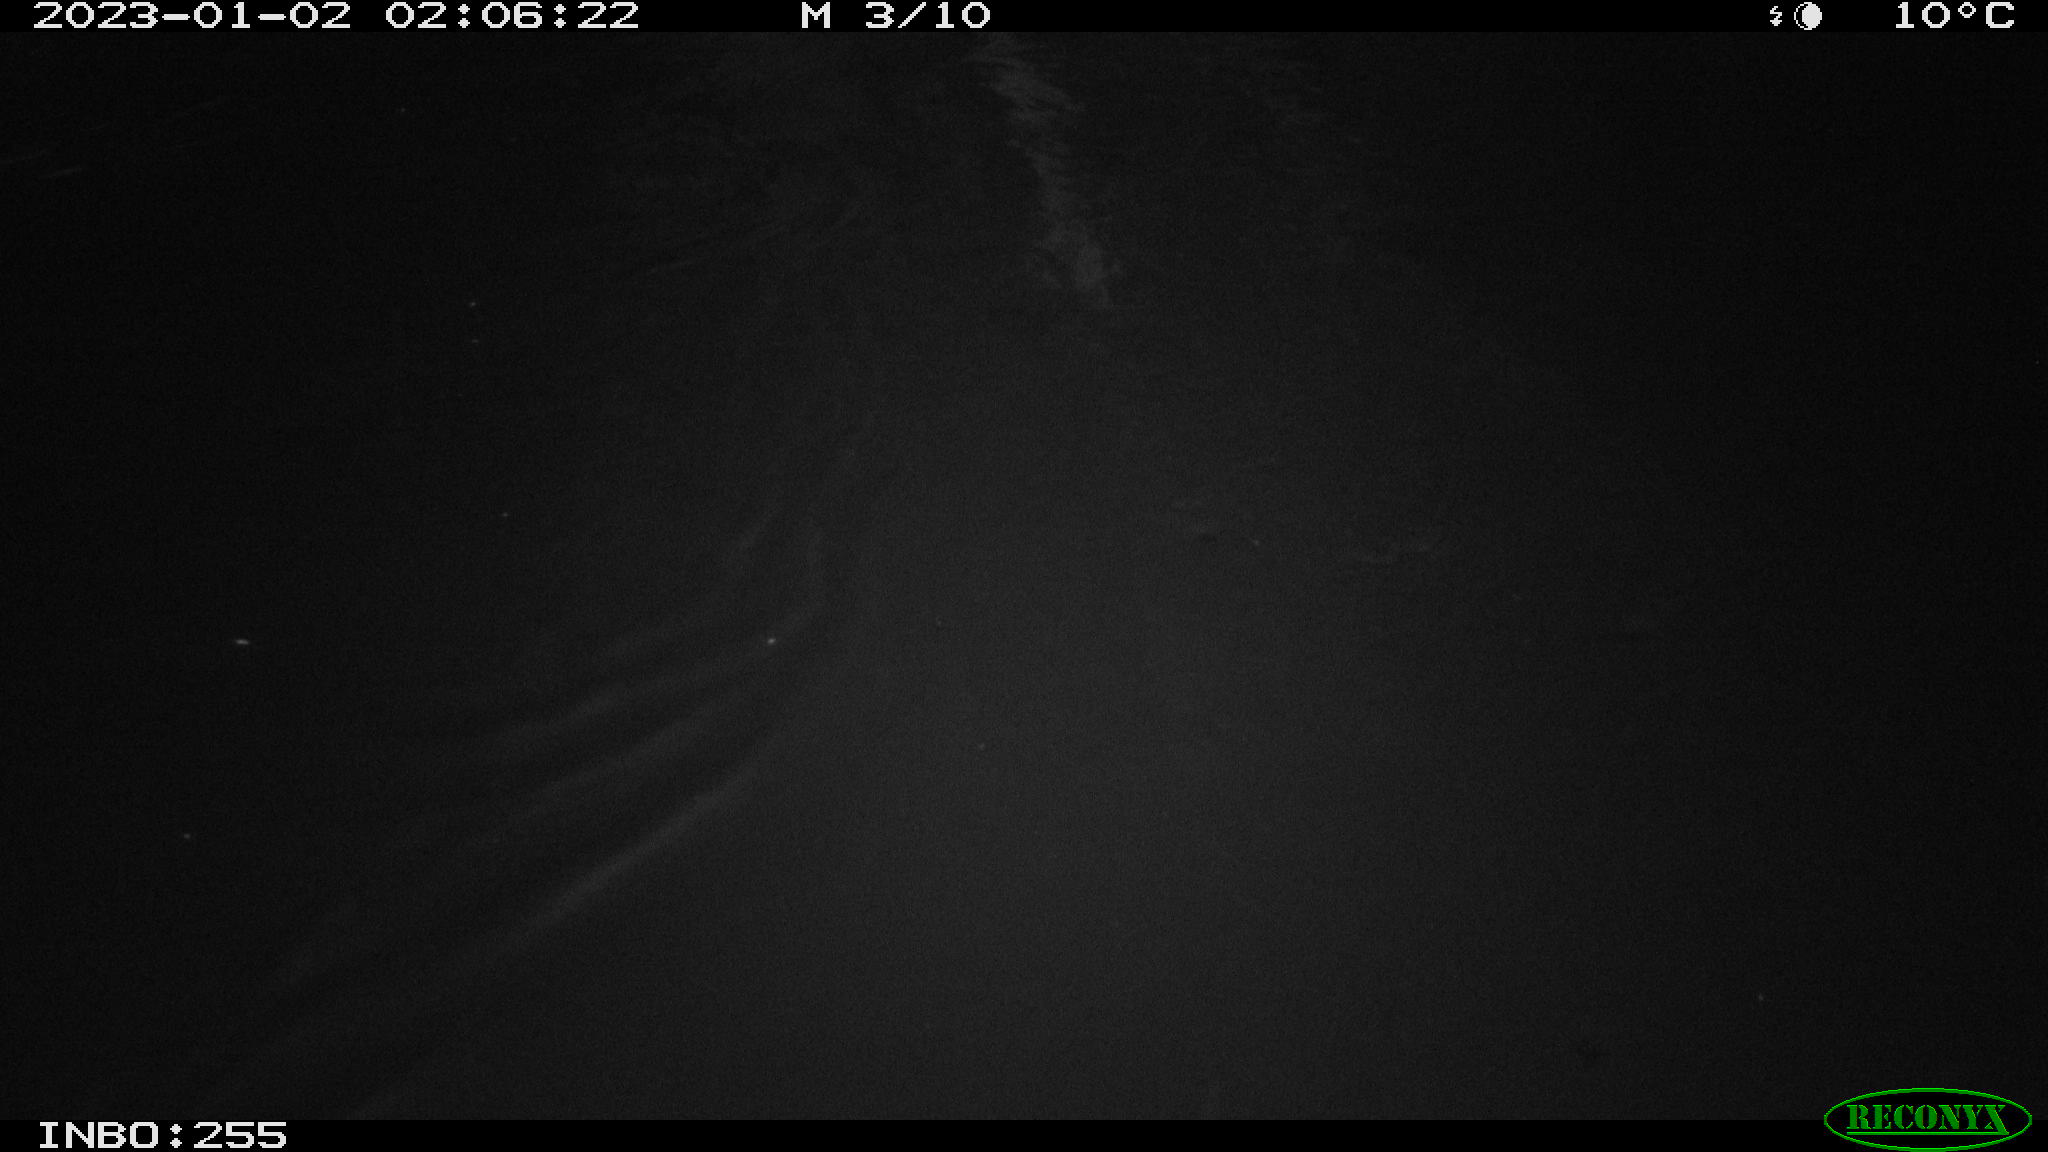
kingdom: Animalia
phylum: Chordata
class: Mammalia
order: Rodentia
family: Muridae
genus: Rattus
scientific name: Rattus norvegicus
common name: Brown rat
